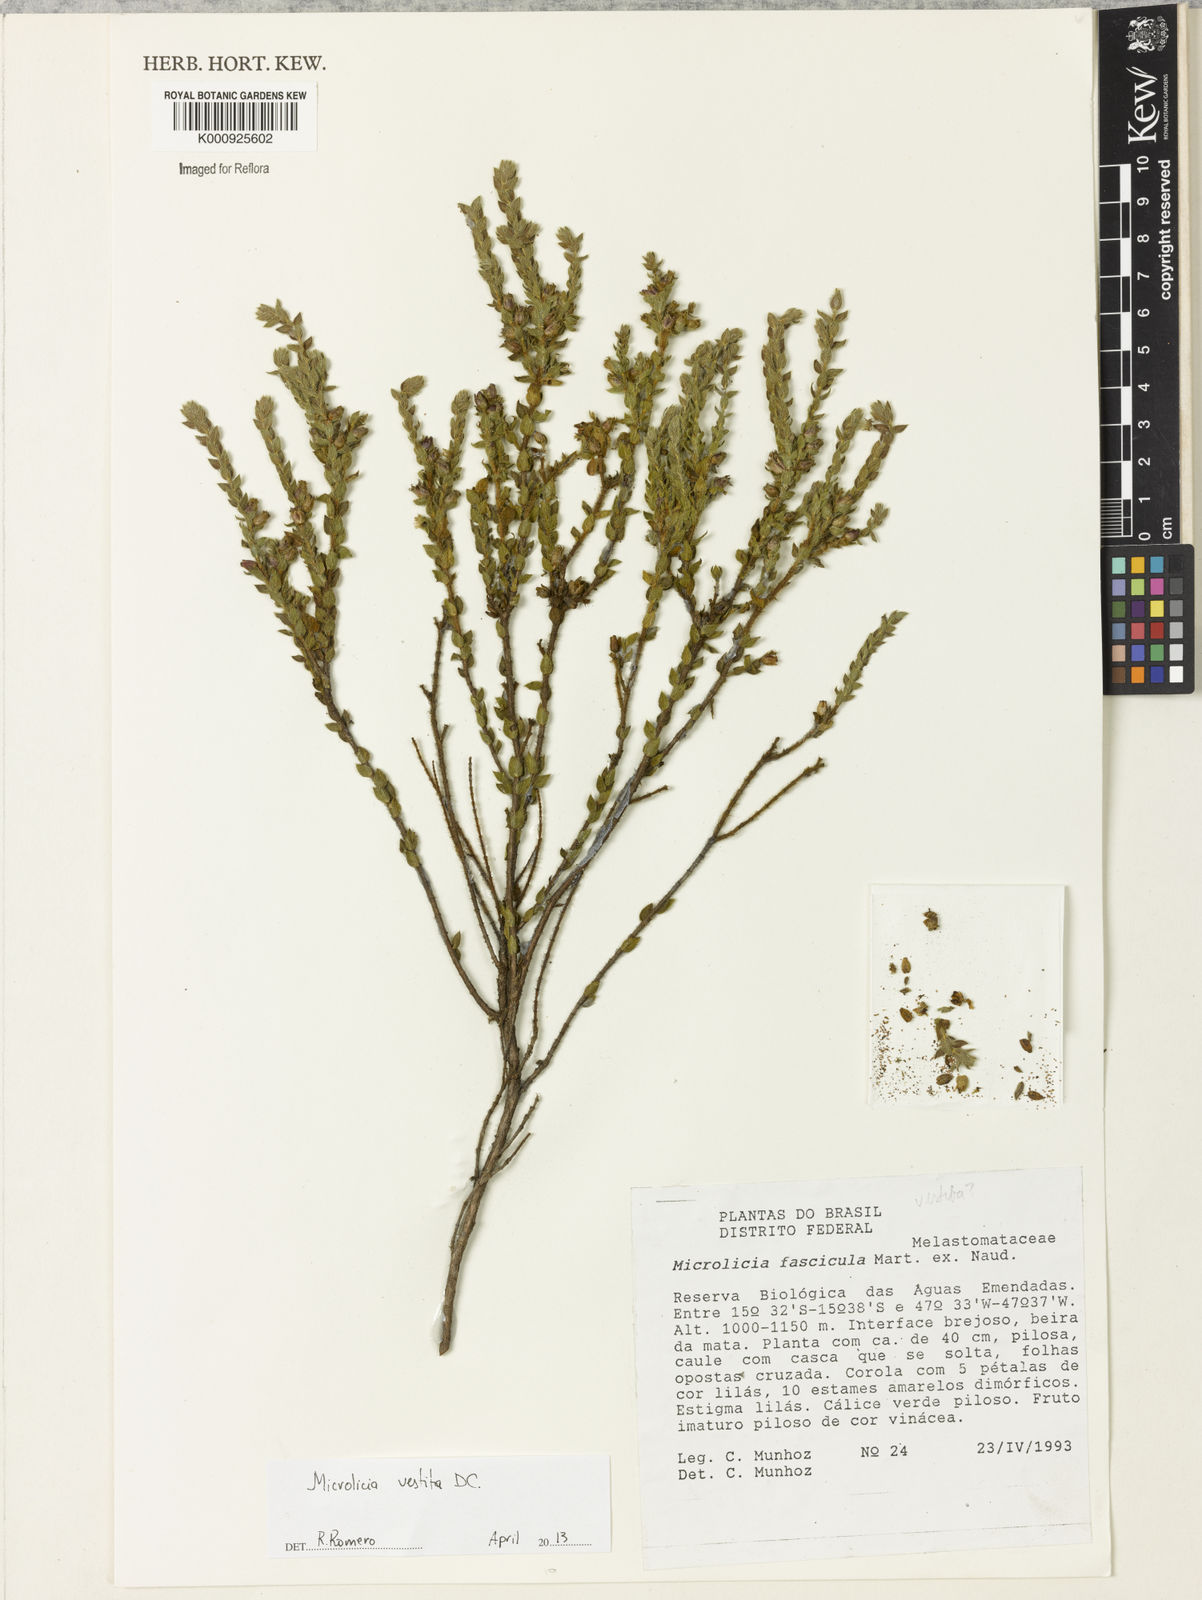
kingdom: Plantae
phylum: Tracheophyta
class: Magnoliopsida
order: Myrtales
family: Melastomataceae
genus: Microlicia
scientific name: Microlicia vestita
